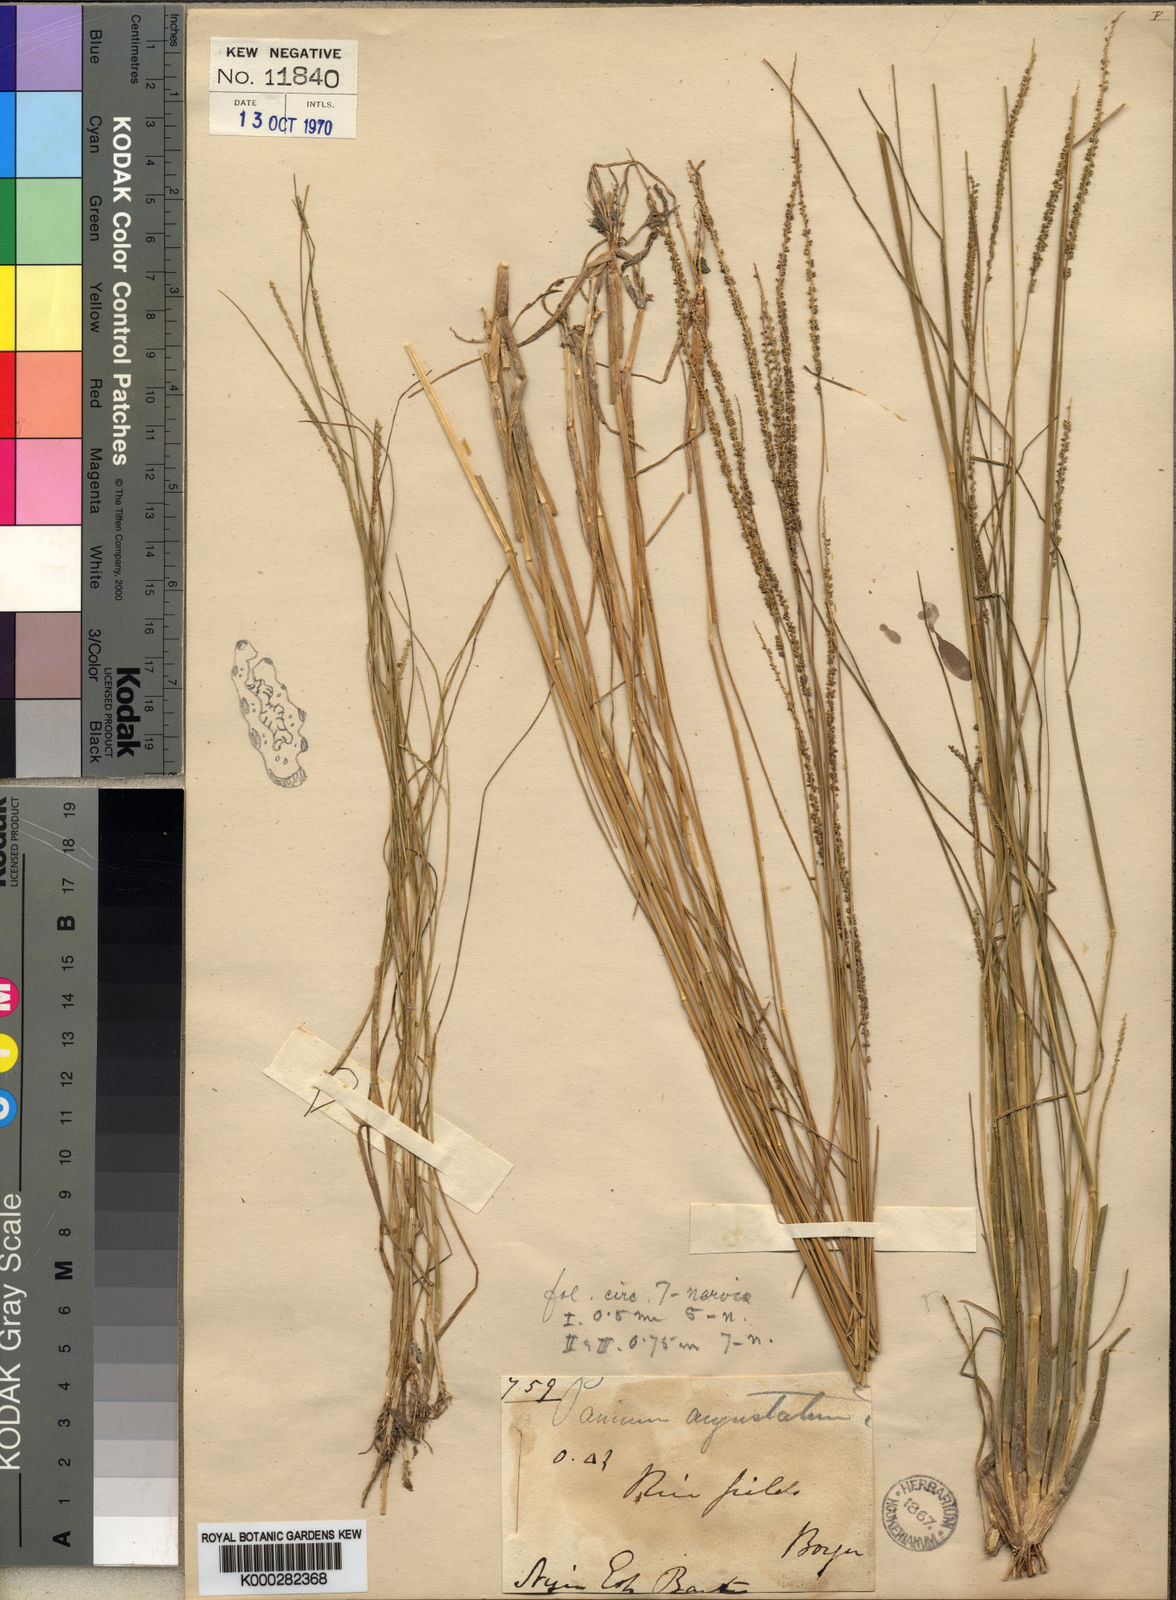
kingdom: Plantae
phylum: Tracheophyta
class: Liliopsida
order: Poales
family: Poaceae
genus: Sacciolepis
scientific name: Sacciolepis micrococca
